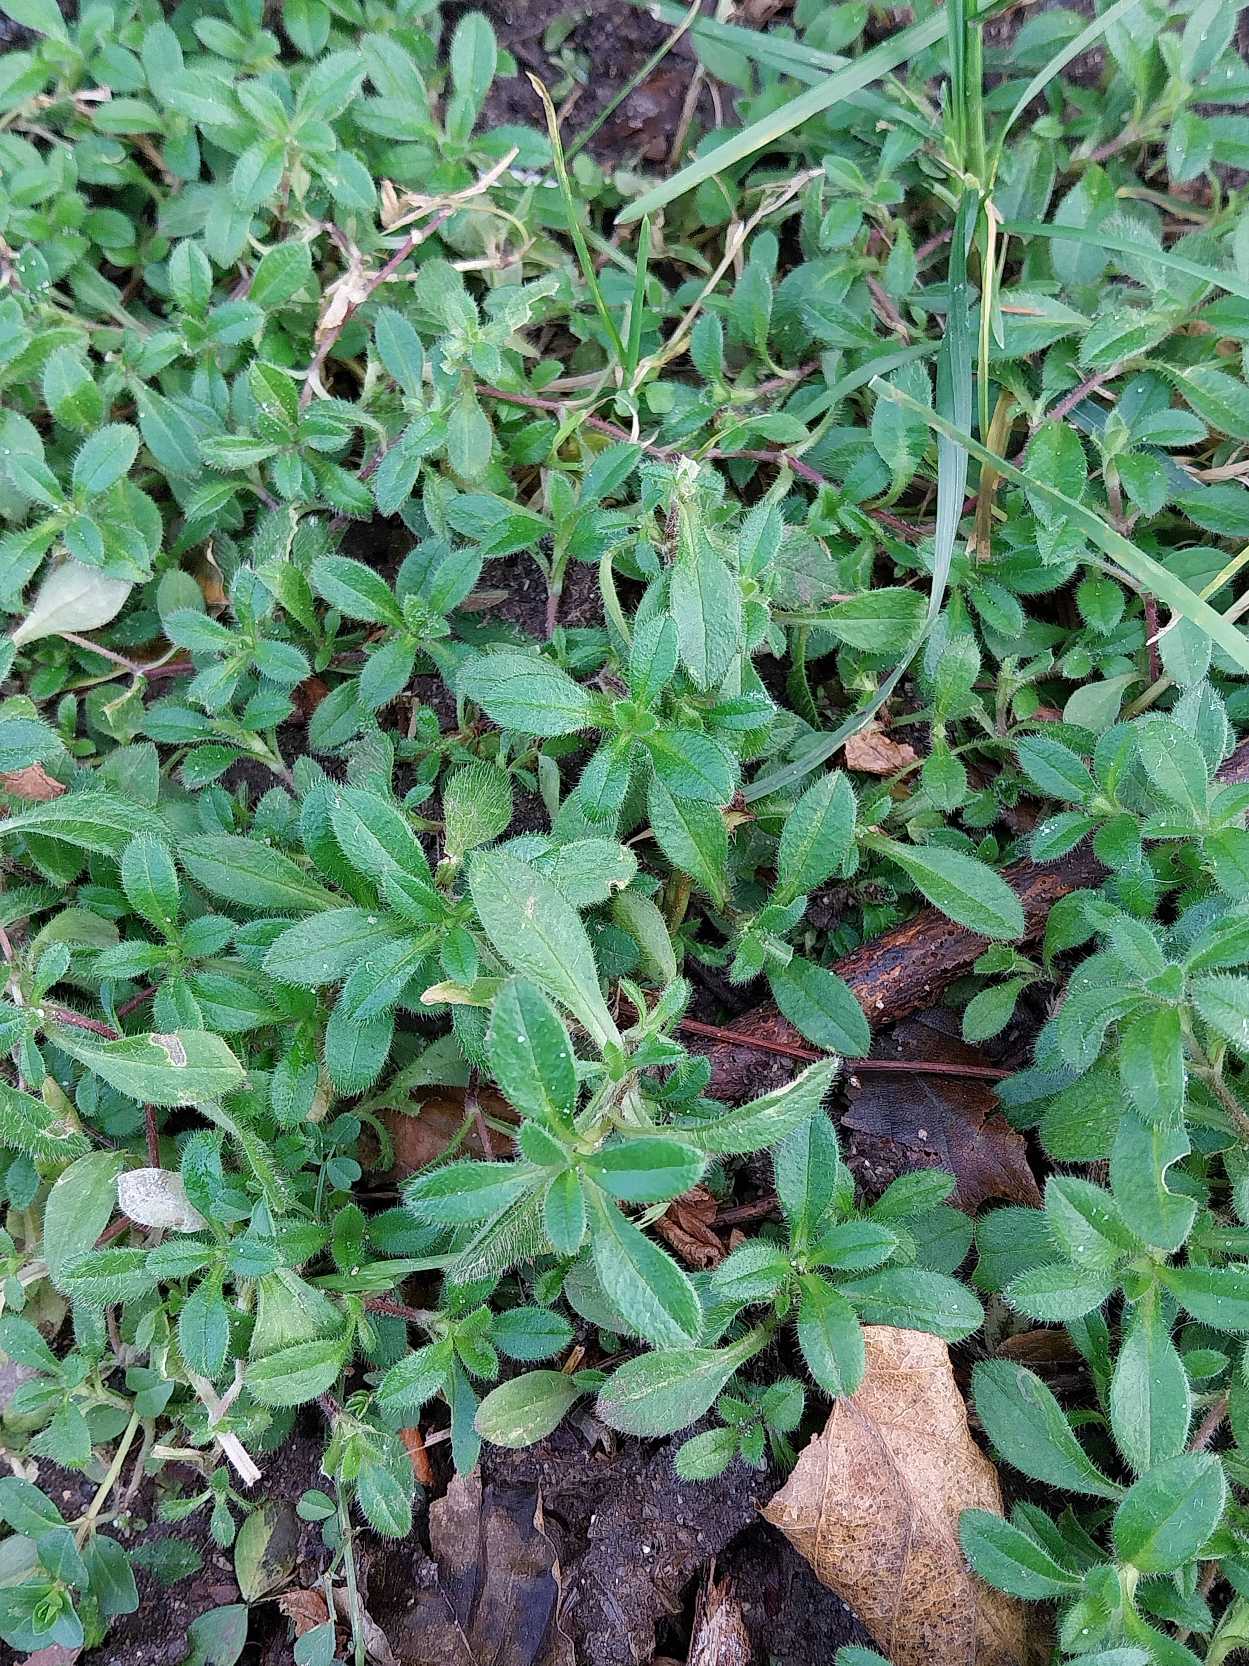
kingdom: Plantae
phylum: Tracheophyta
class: Magnoliopsida
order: Caryophyllales
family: Caryophyllaceae
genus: Cerastium
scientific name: Cerastium fontanum
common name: Almindelig hønsetarm
